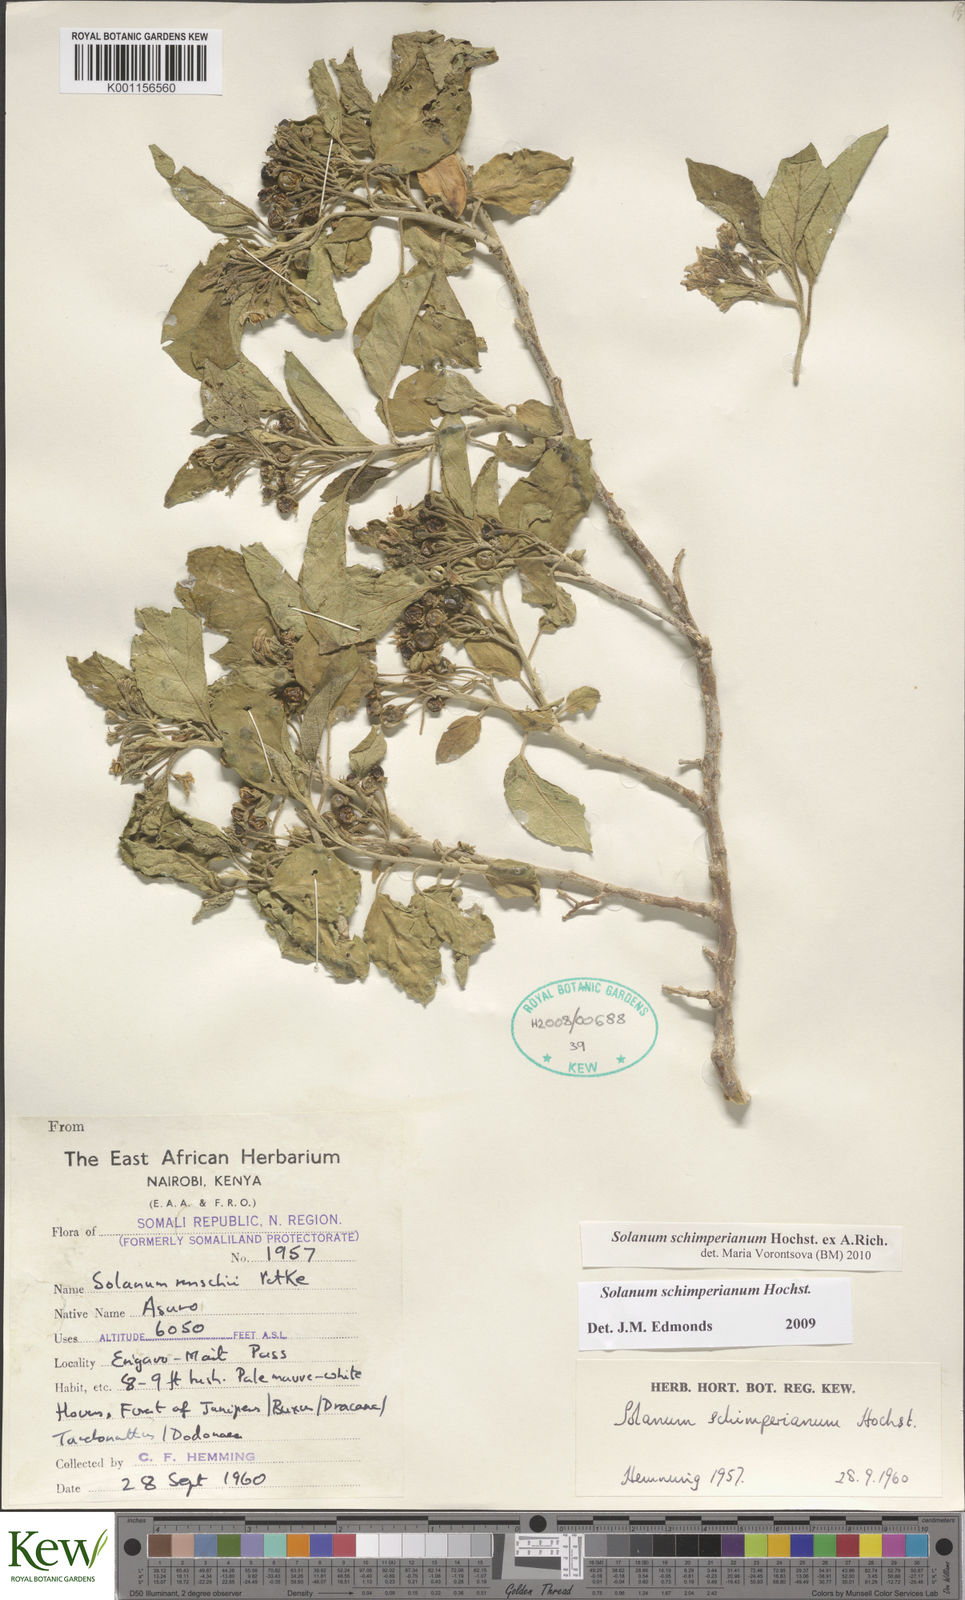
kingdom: Plantae
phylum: Tracheophyta
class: Magnoliopsida
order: Solanales
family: Solanaceae
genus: Solanum
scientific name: Solanum
